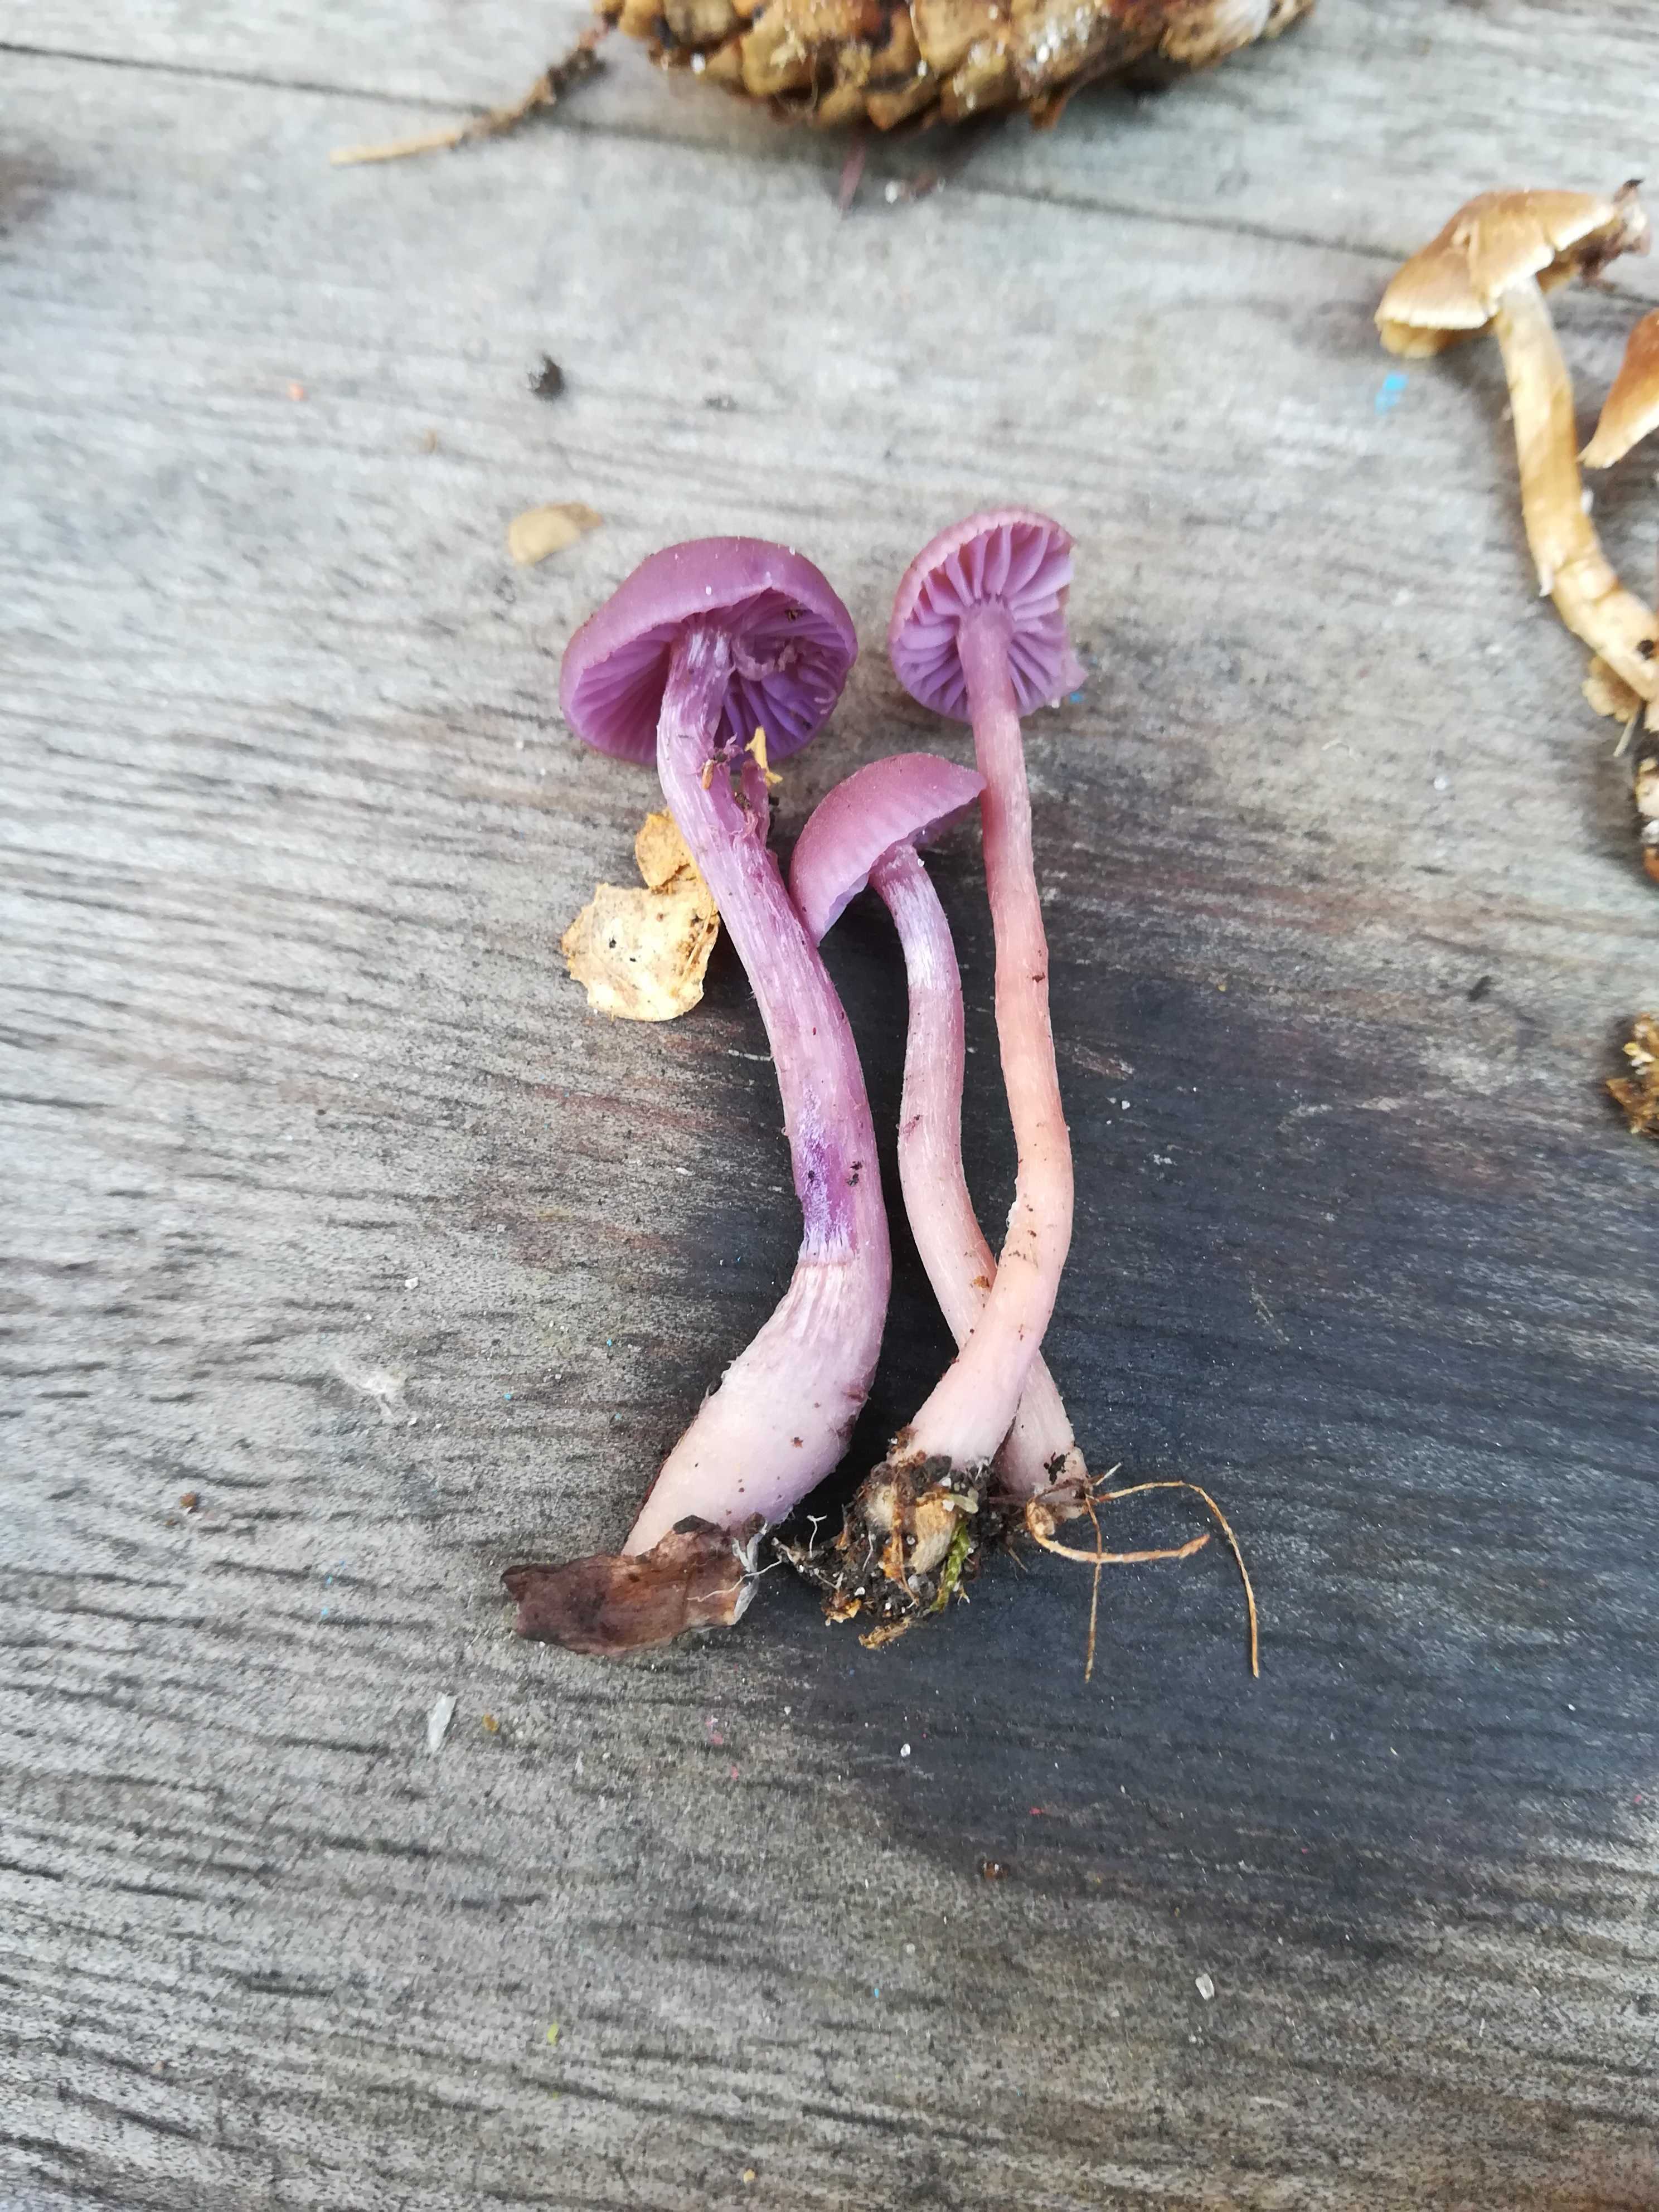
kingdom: Fungi
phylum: Basidiomycota
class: Agaricomycetes
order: Agaricales
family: Hydnangiaceae
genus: Laccaria
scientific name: Laccaria amethystina
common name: violet ametysthat
